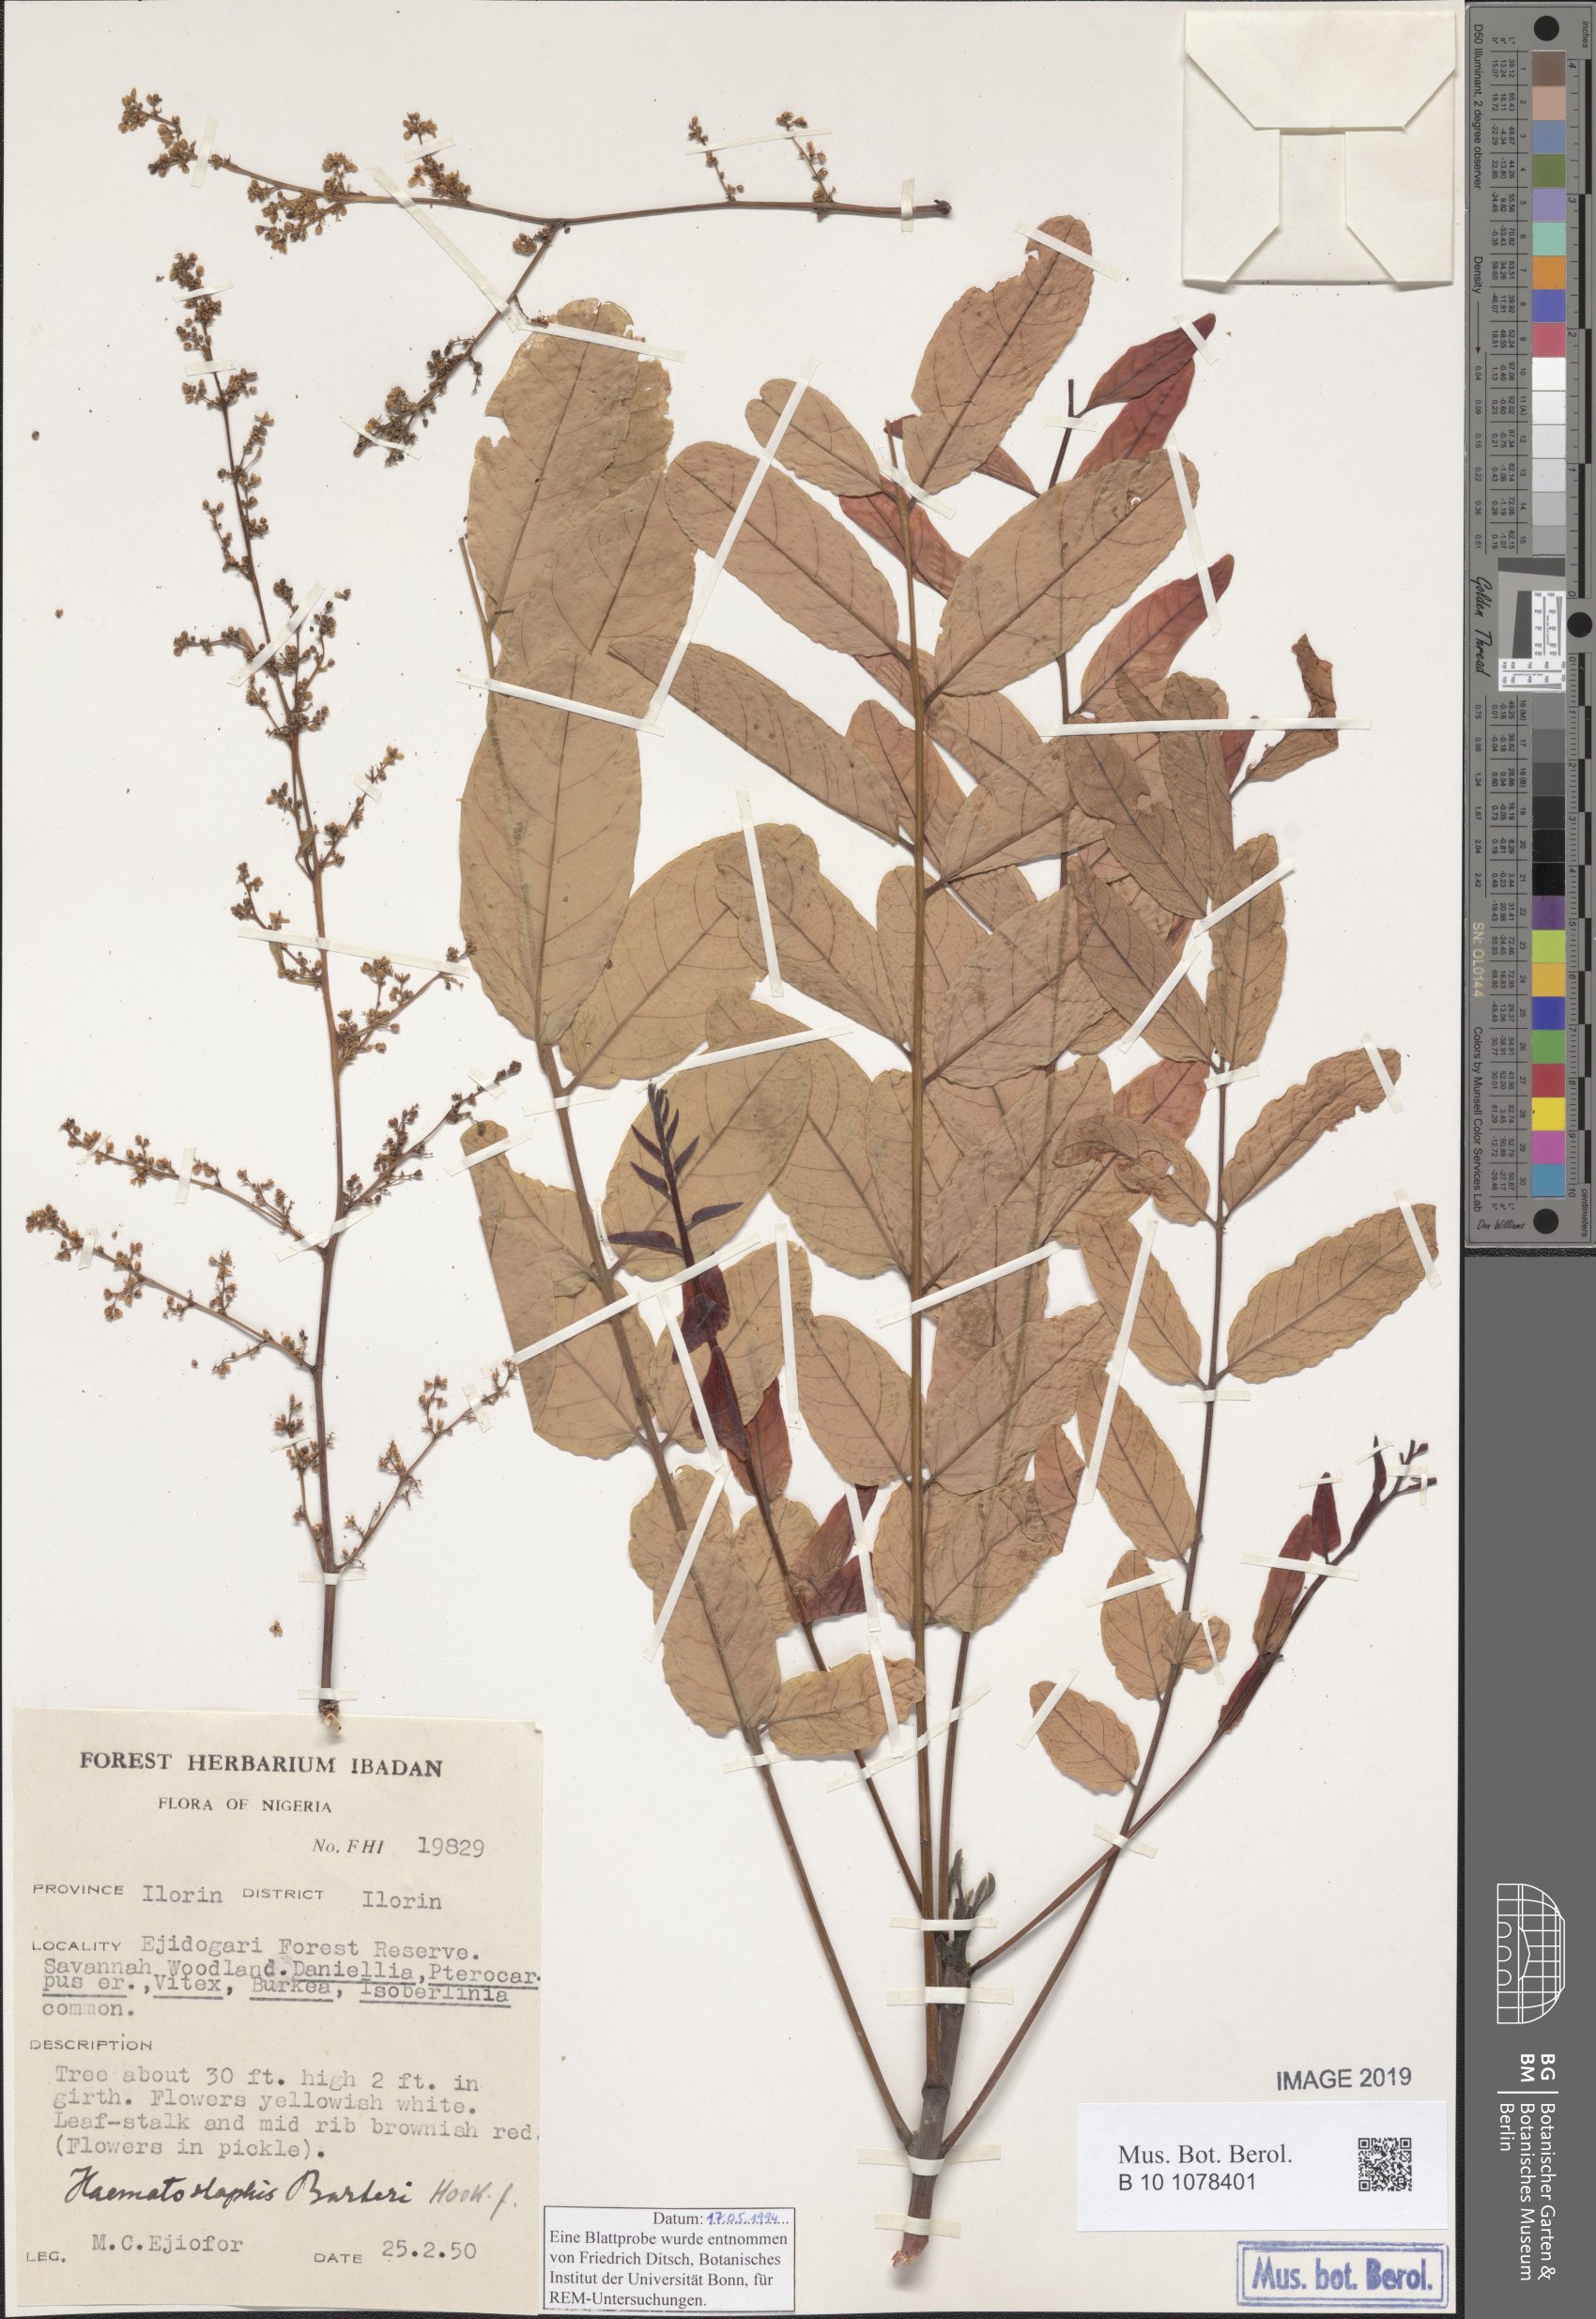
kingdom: Plantae
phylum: Tracheophyta
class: Magnoliopsida
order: Sapindales
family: Anacardiaceae
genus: Haematostaphis
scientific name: Haematostaphis barteri
